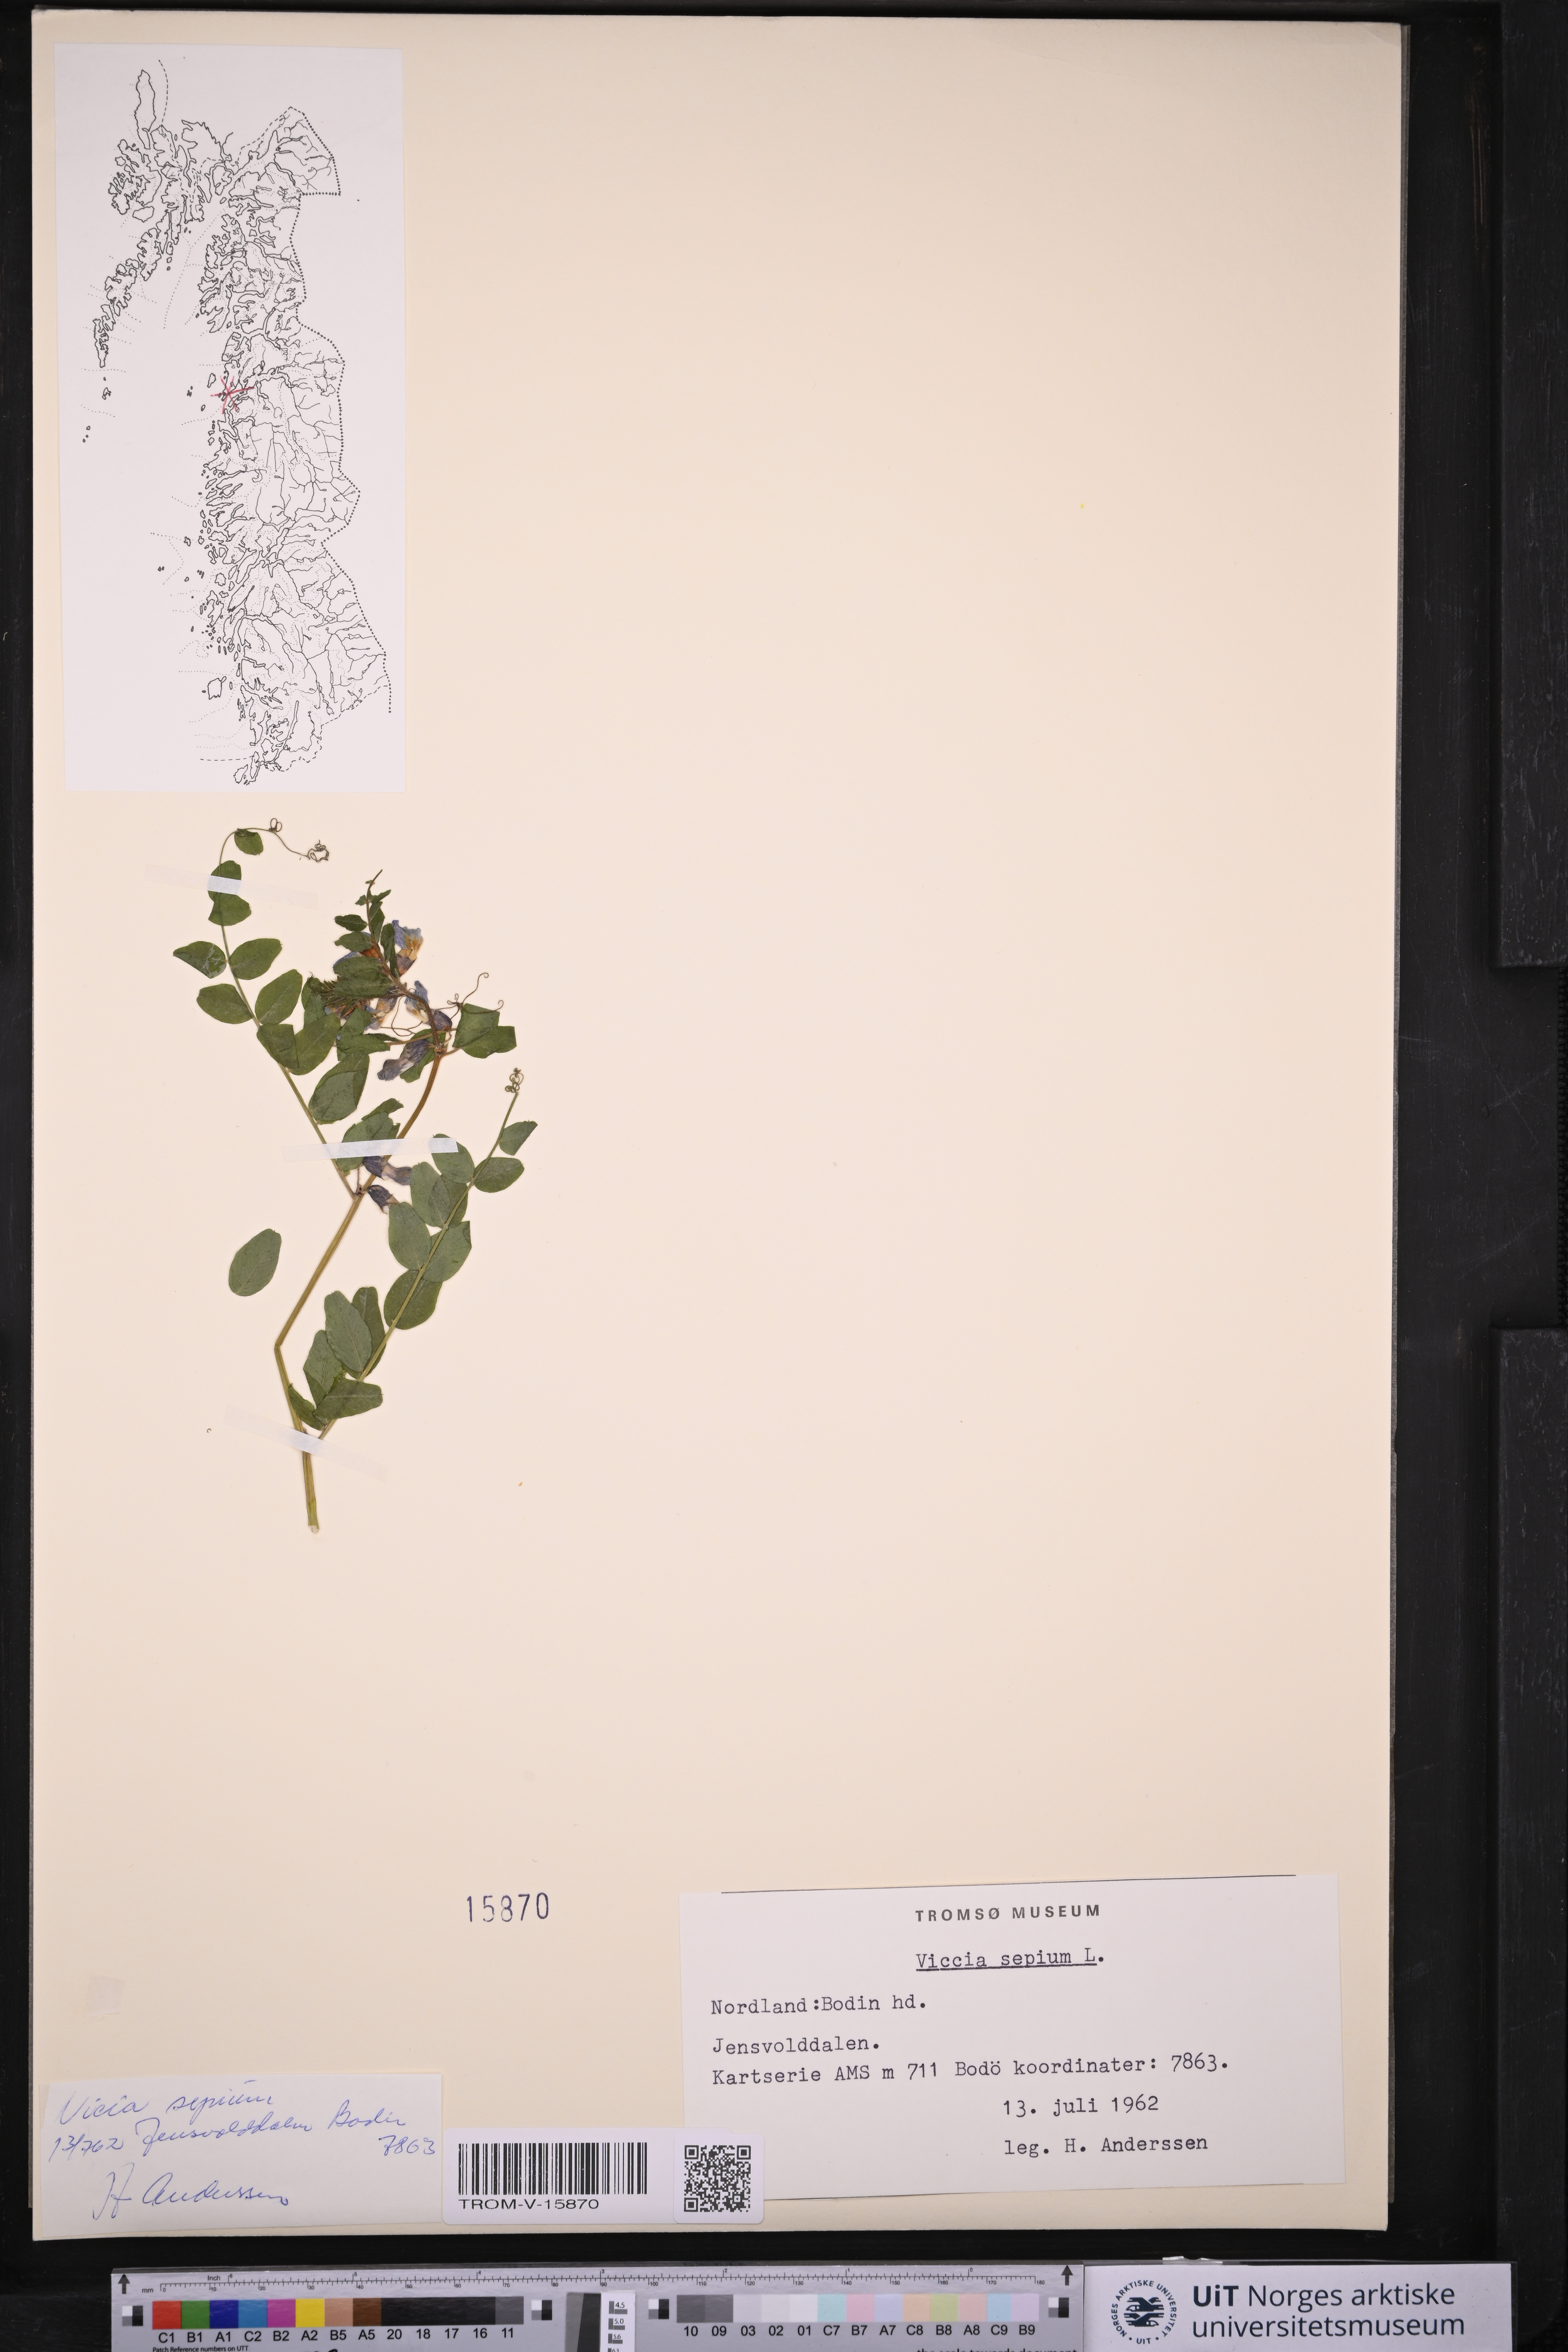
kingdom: Plantae
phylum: Tracheophyta
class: Magnoliopsida
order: Fabales
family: Fabaceae
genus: Vicia
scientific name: Vicia sepium
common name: Bush vetch
